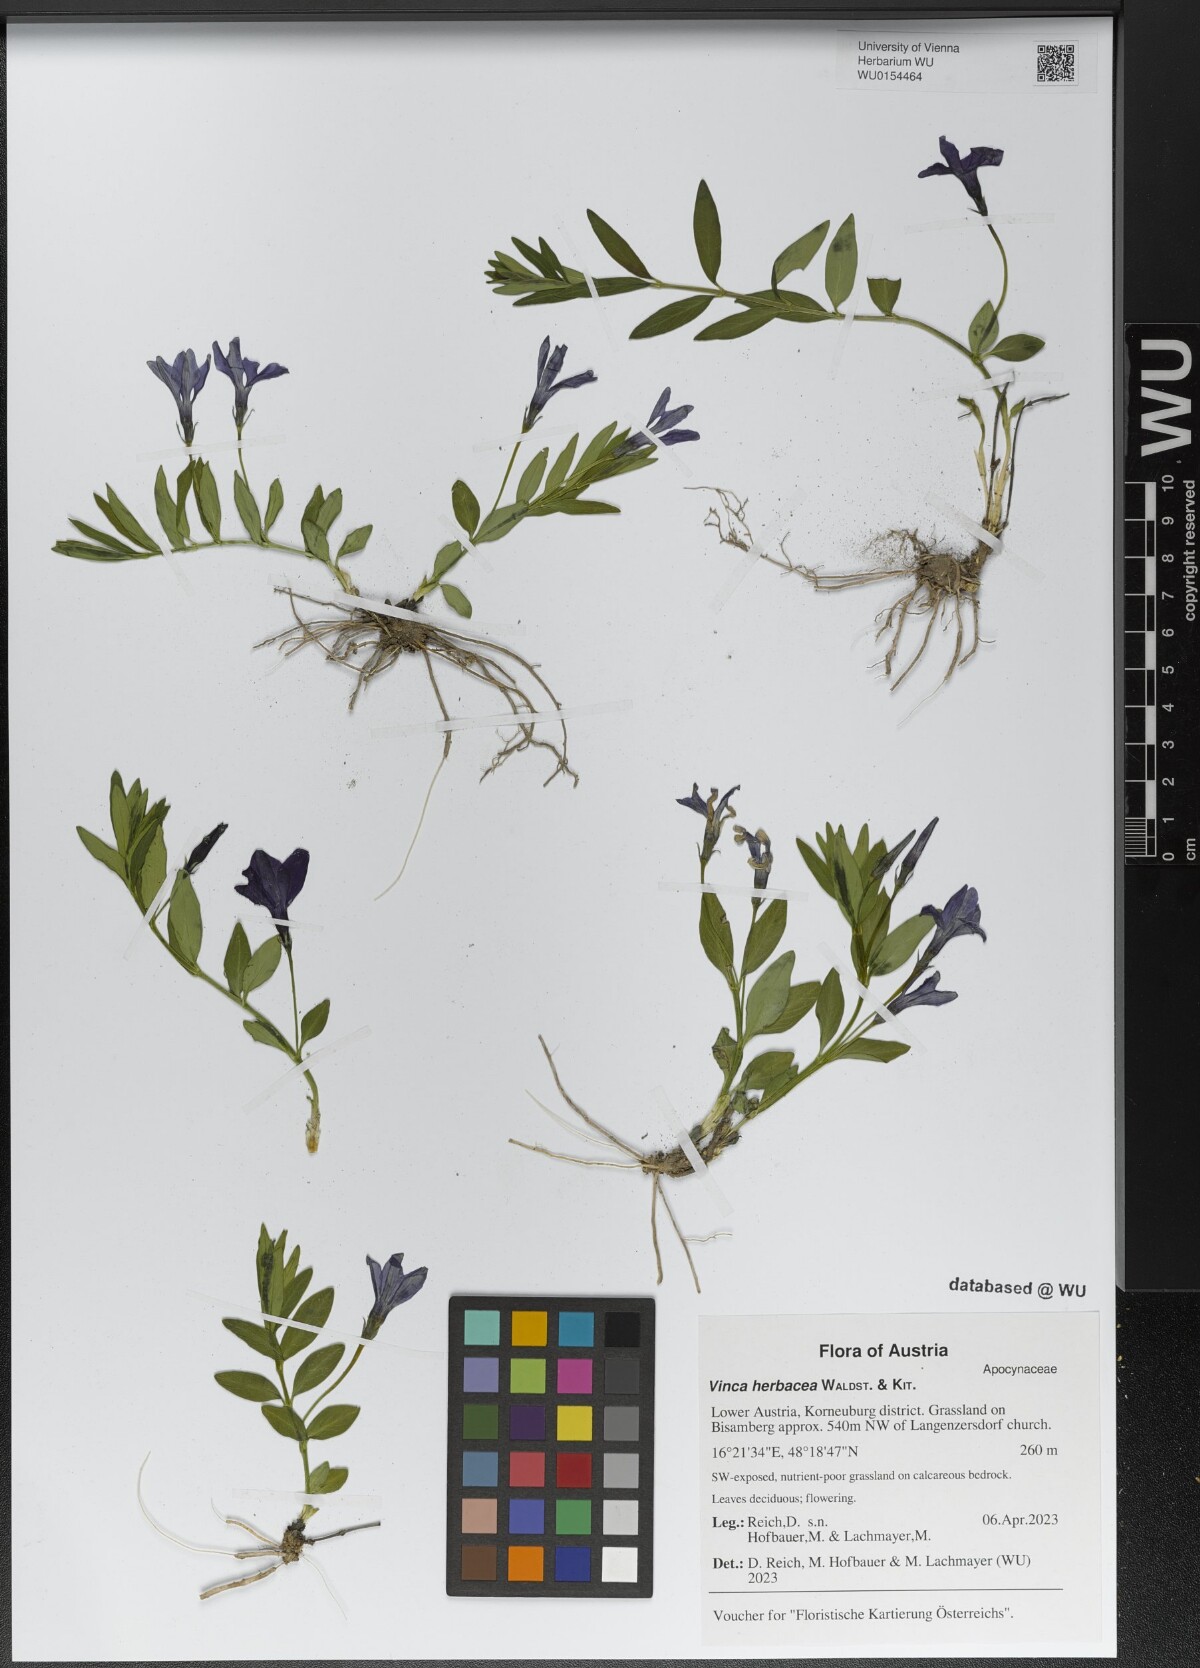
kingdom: Plantae
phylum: Tracheophyta
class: Magnoliopsida
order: Gentianales
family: Apocynaceae
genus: Vinca
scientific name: Vinca herbacea
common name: Herbaceous periwinkle
